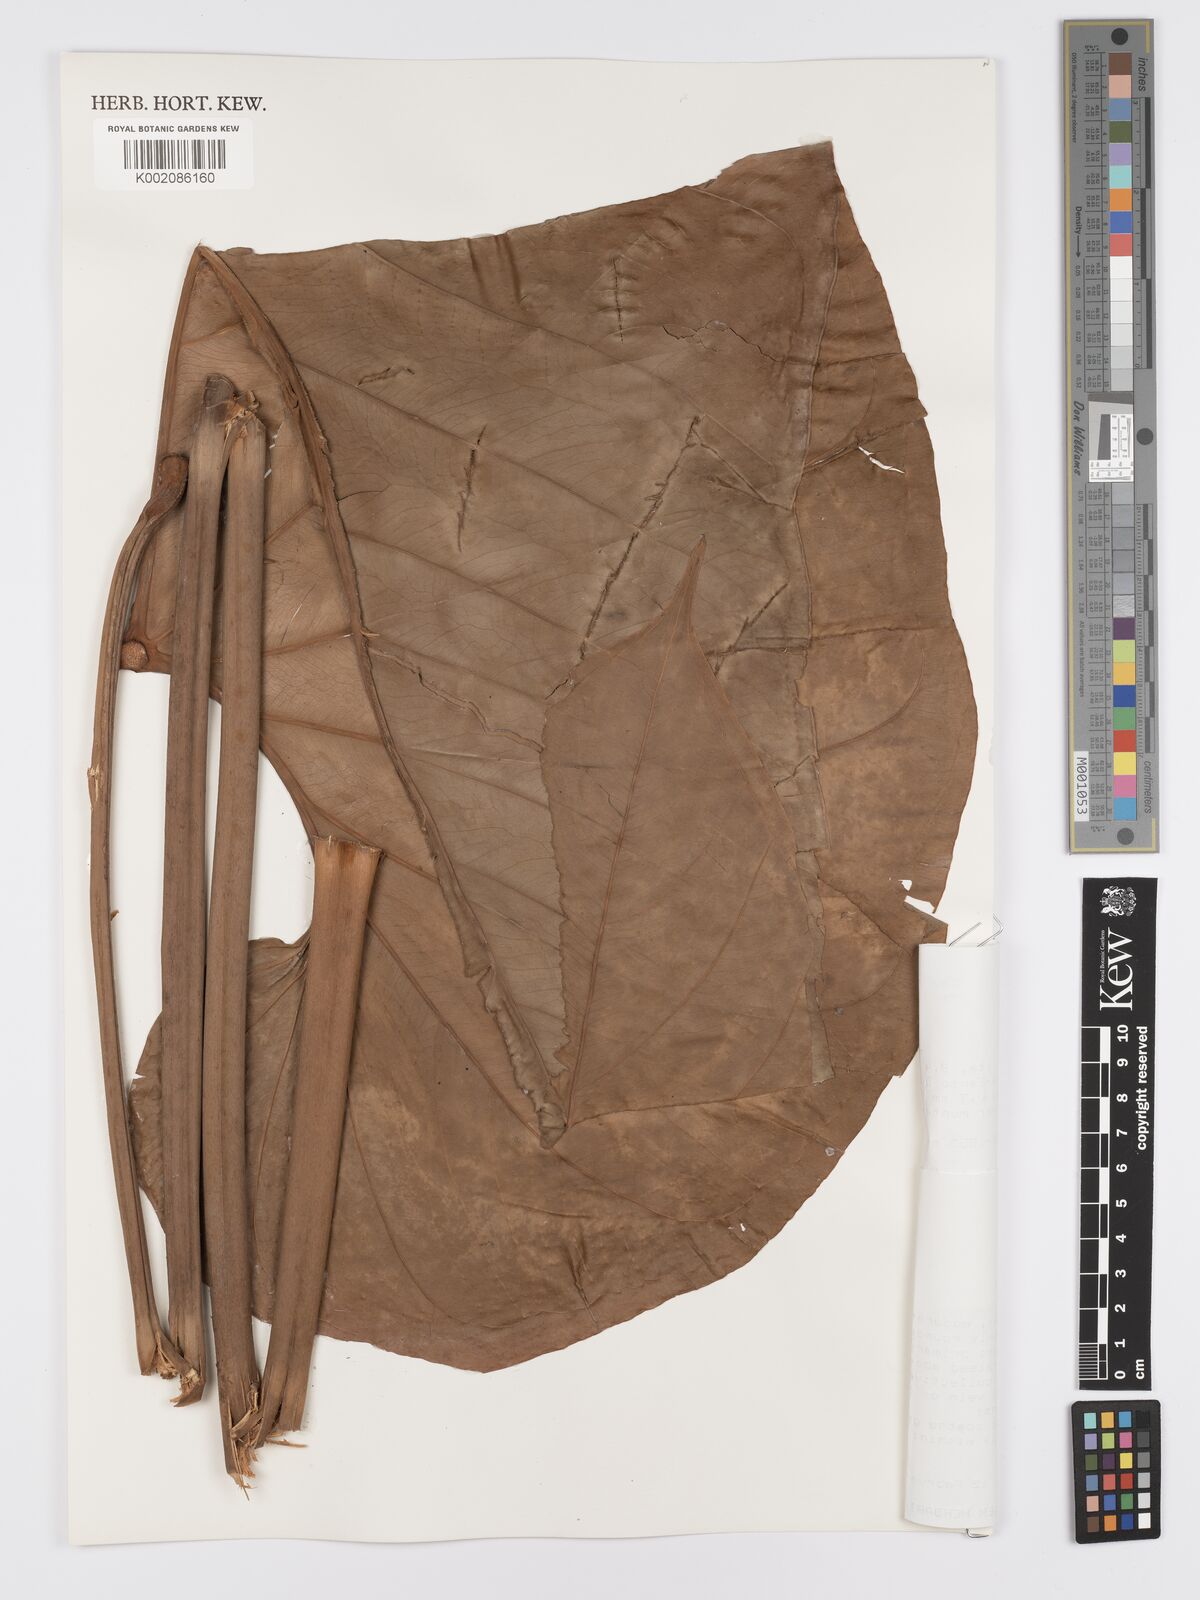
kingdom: Plantae
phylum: Tracheophyta
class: Liliopsida
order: Alismatales
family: Araceae
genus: Anthurium
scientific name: Anthurium giganteum
